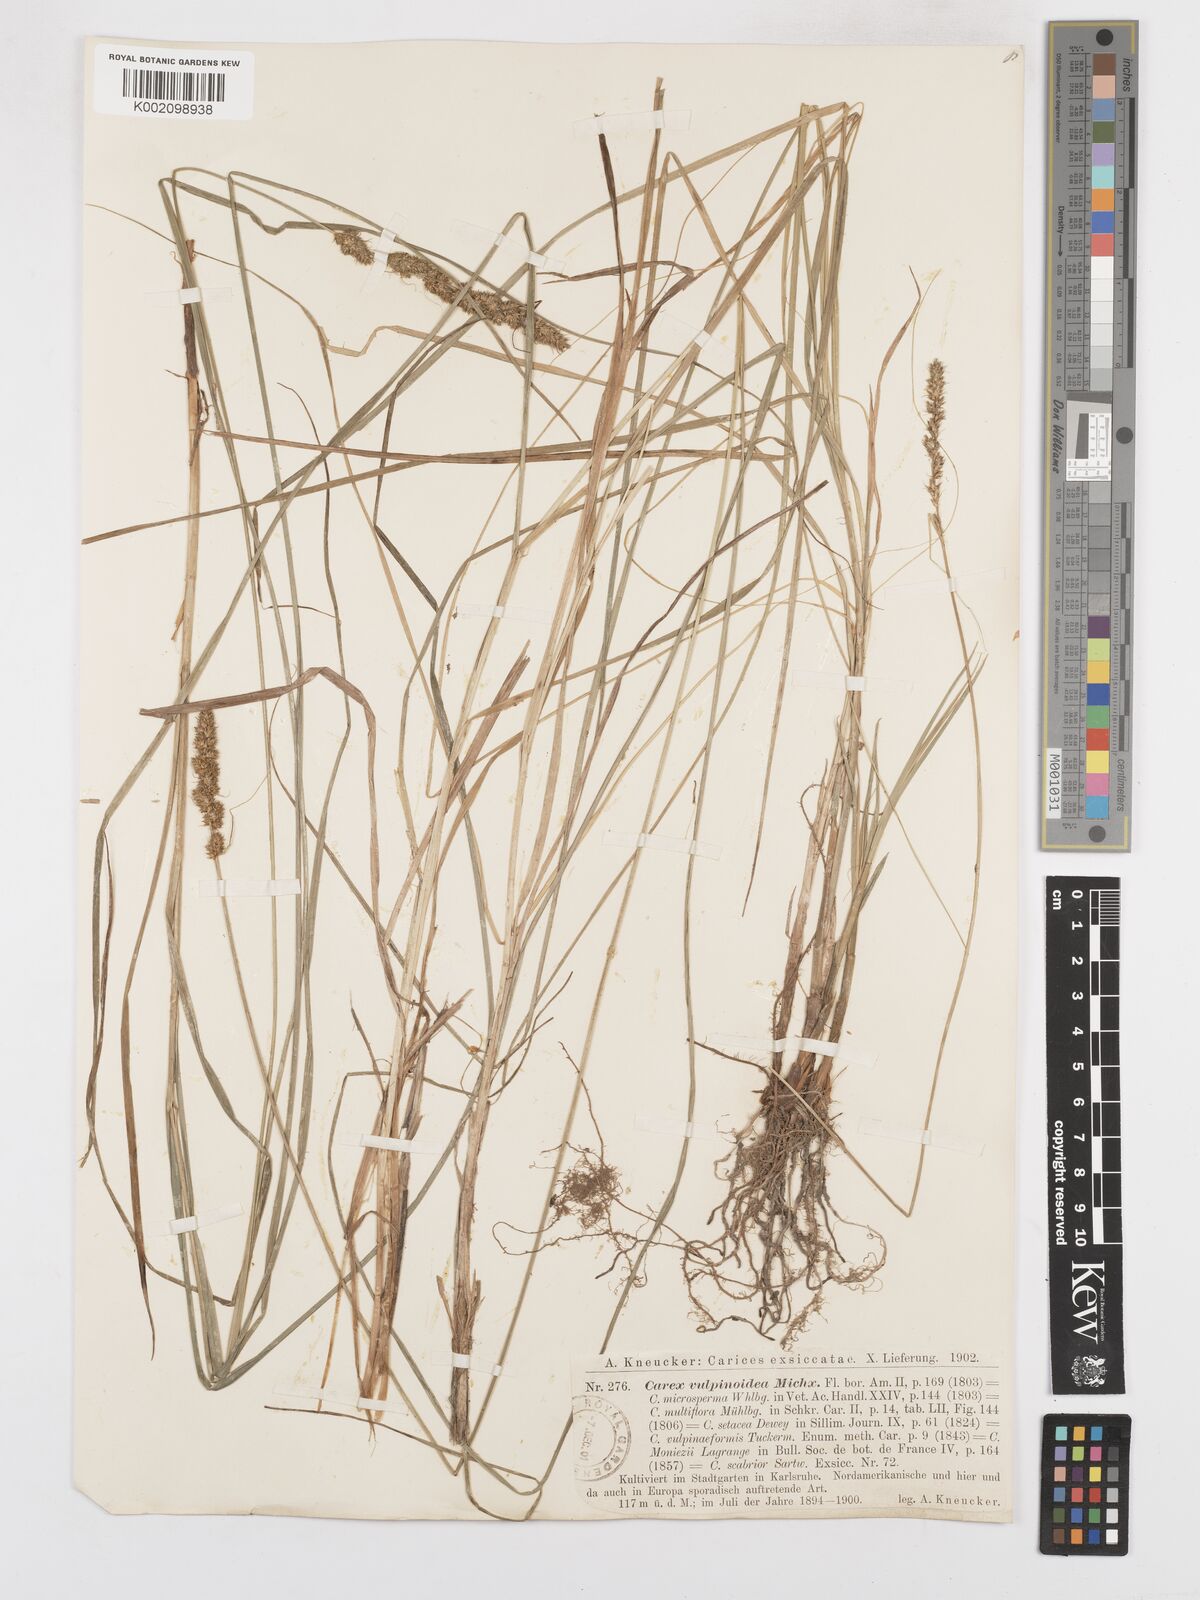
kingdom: Plantae
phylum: Tracheophyta
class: Liliopsida
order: Poales
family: Cyperaceae
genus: Carex
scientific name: Carex vulpinoidea
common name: American fox-sedge
